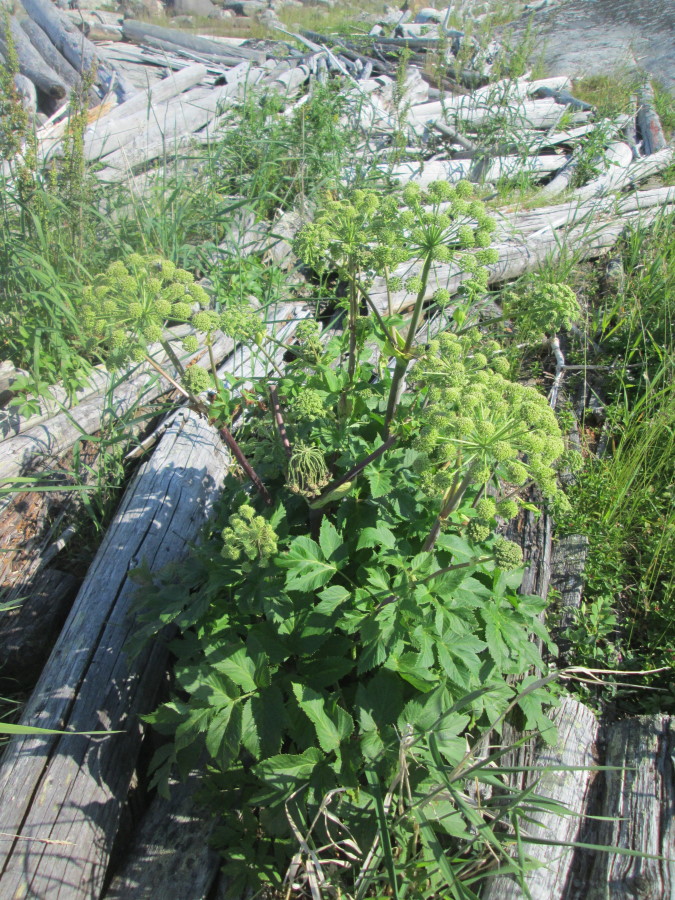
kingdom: Plantae
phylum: Tracheophyta
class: Magnoliopsida
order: Apiales
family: Apiaceae
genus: Ostericum
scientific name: Ostericum palustre
